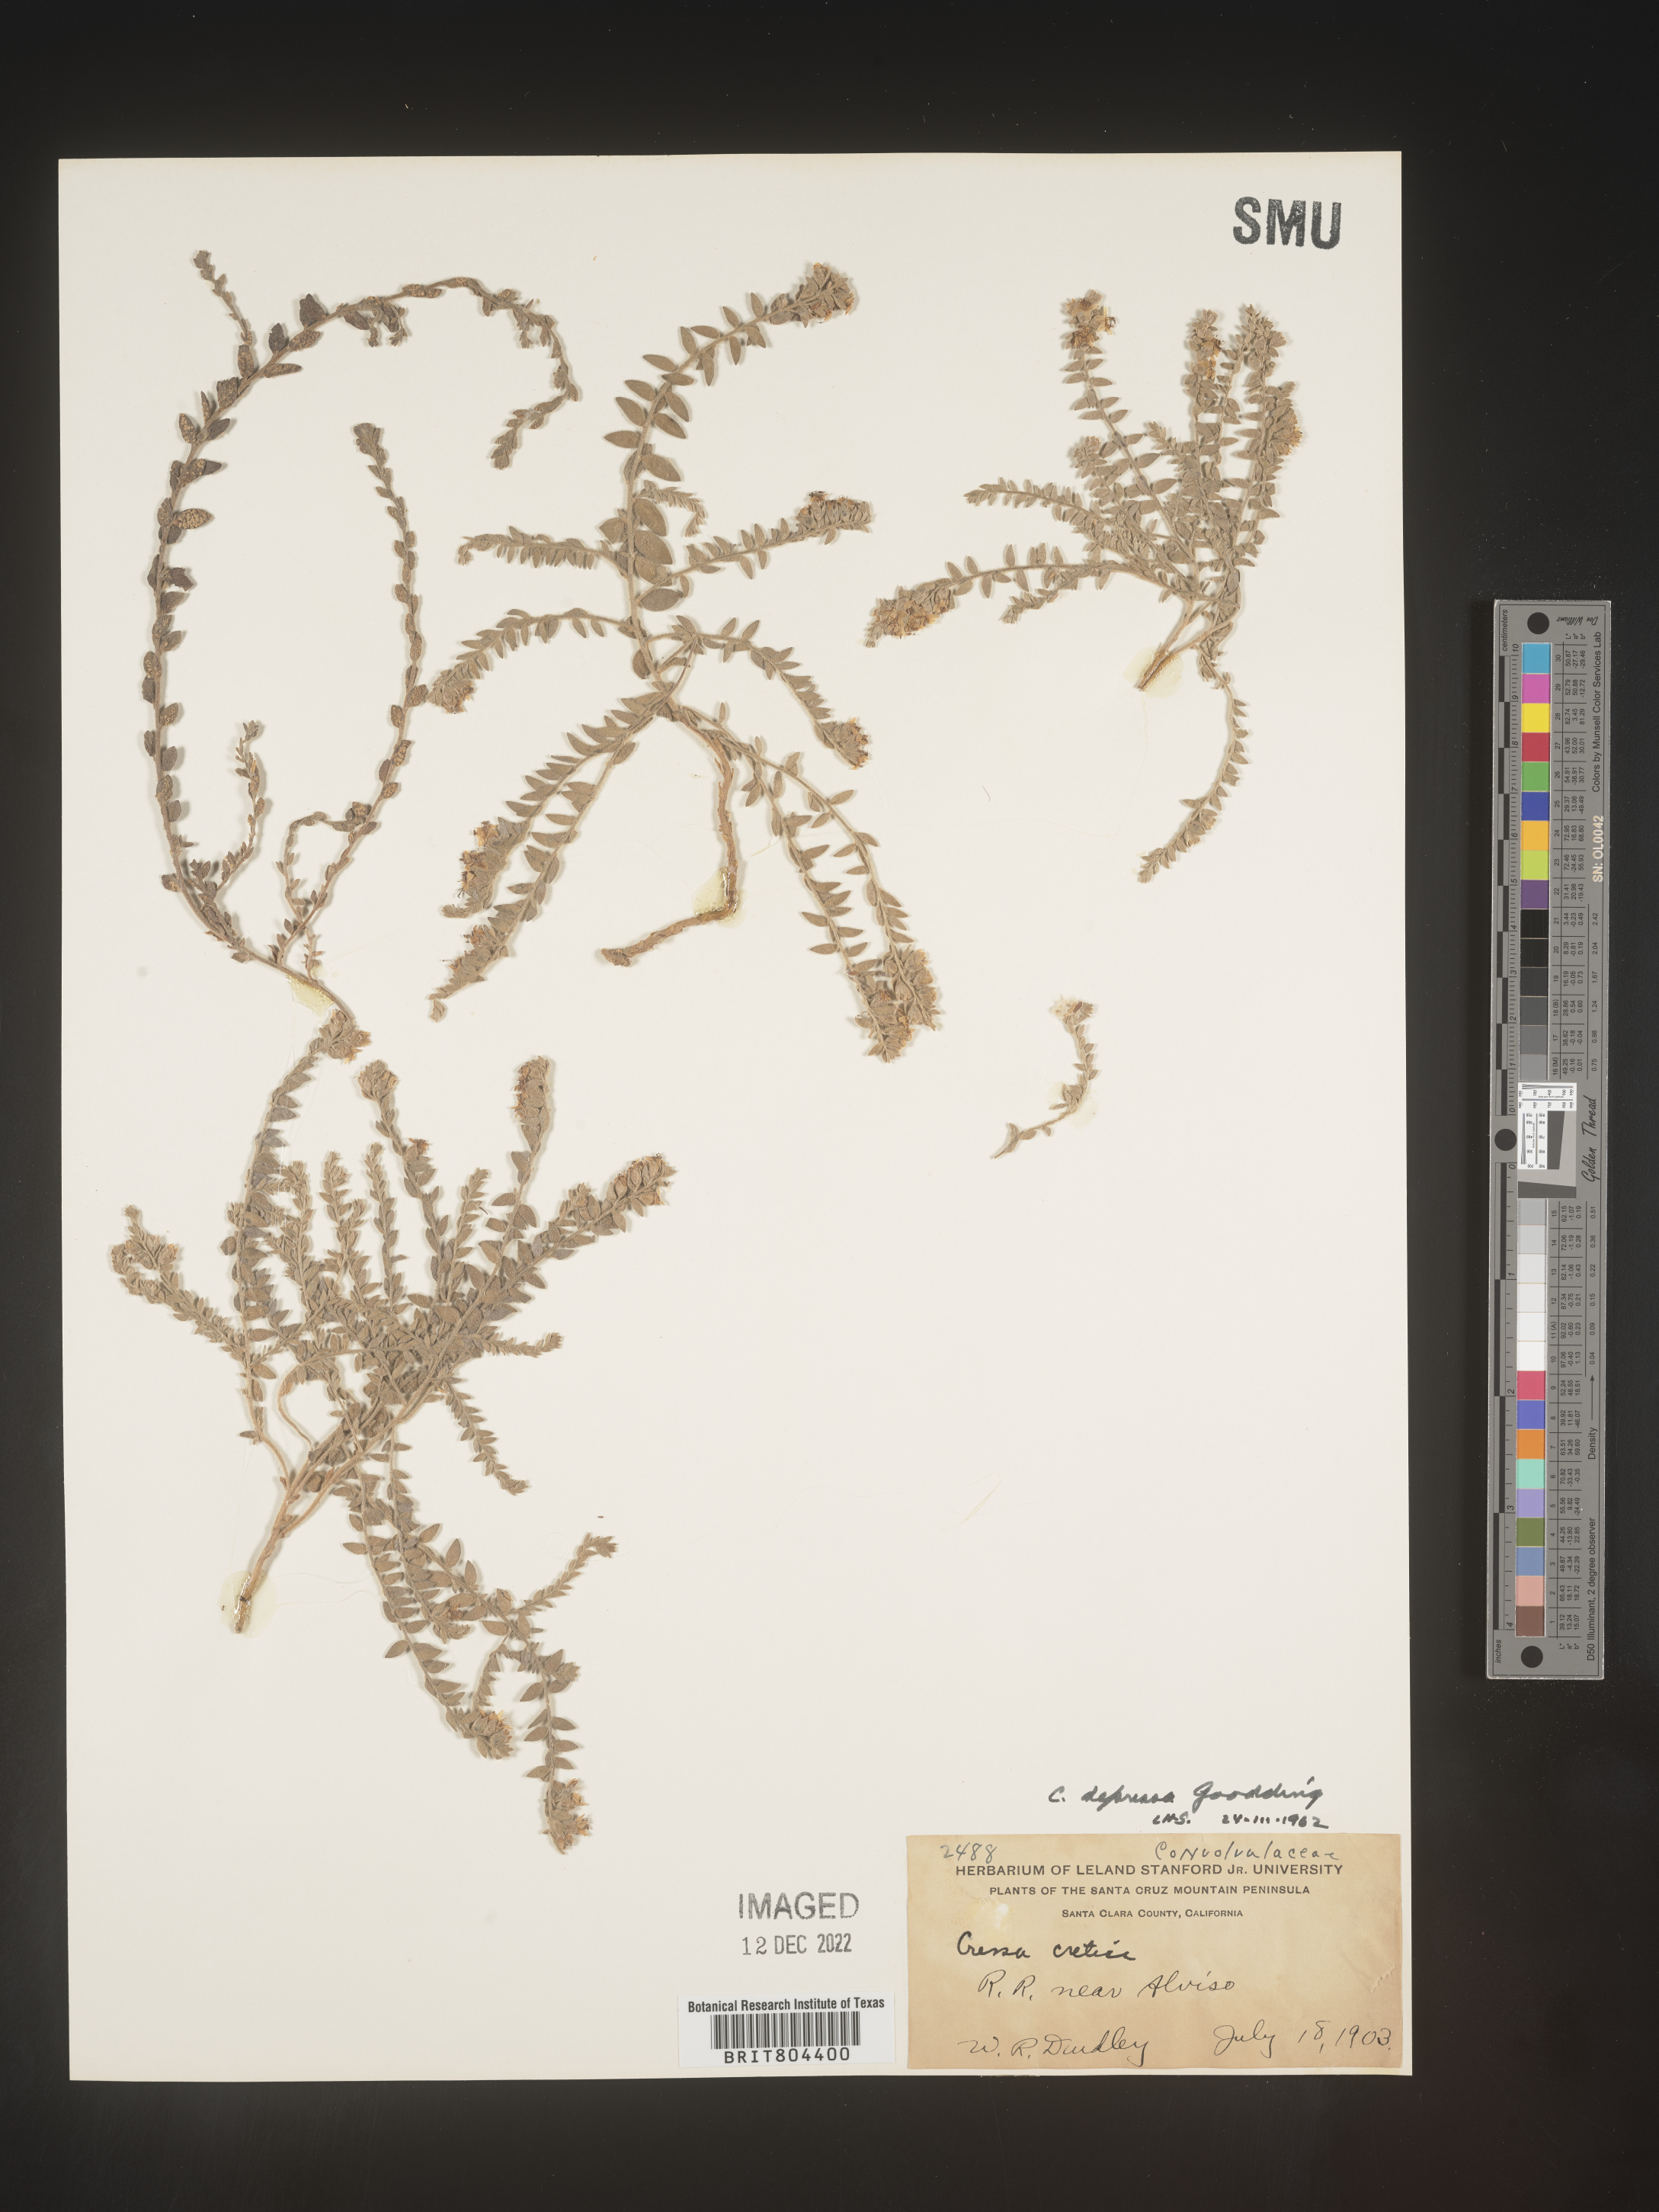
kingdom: Plantae
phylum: Tracheophyta
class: Magnoliopsida
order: Solanales
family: Convolvulaceae
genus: Cressa
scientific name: Cressa
